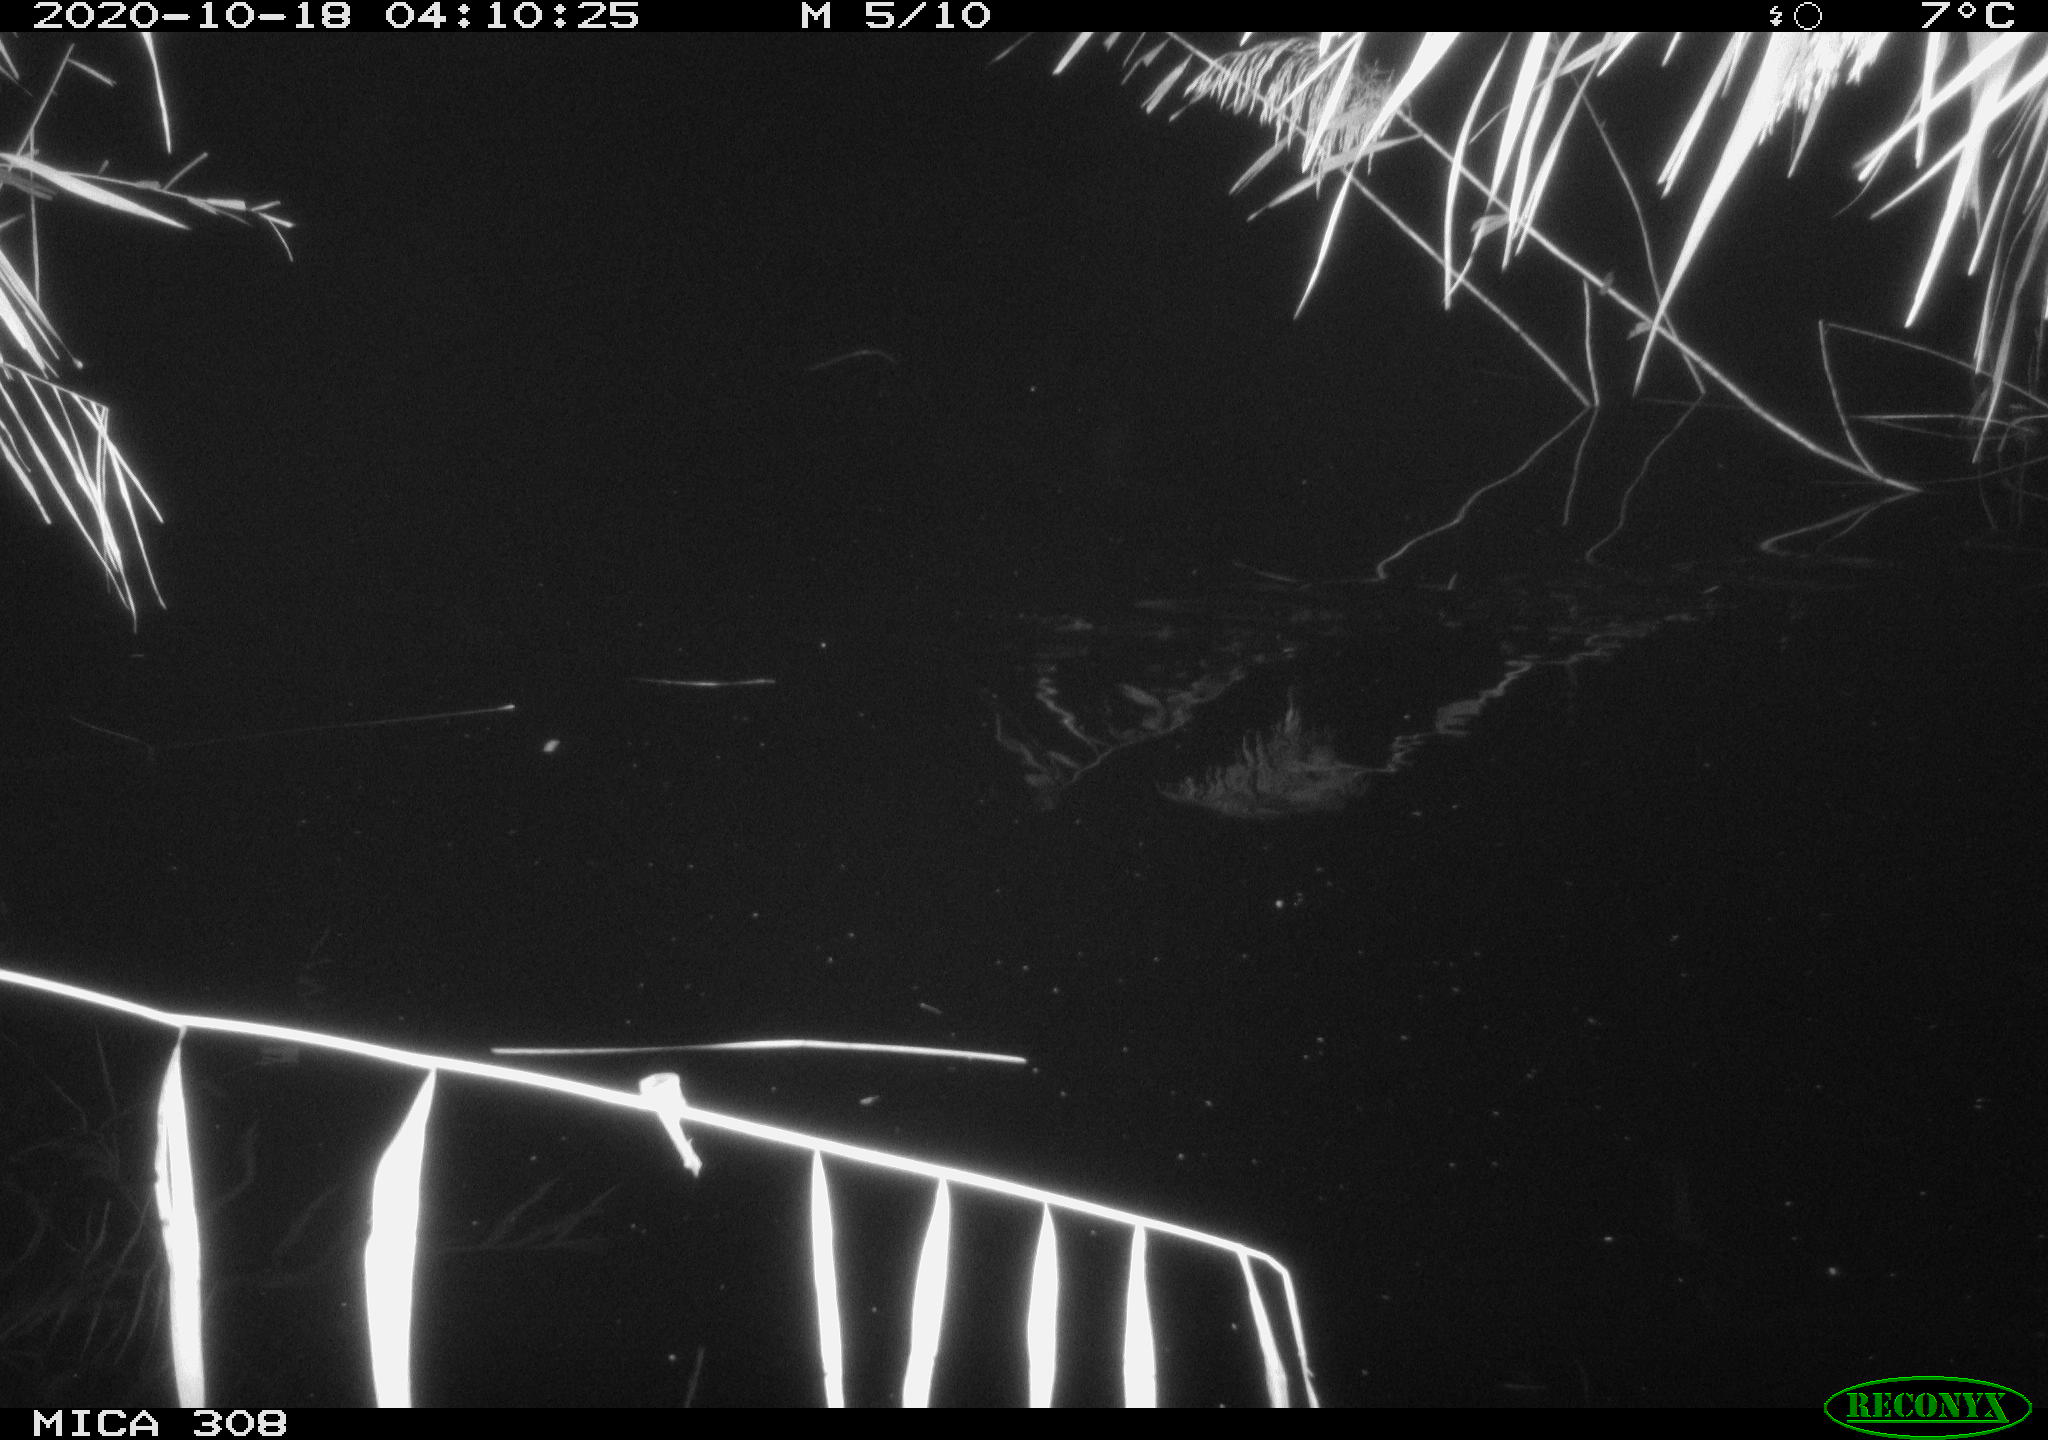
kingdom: Animalia
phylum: Chordata
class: Mammalia
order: Rodentia
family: Muridae
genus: Rattus
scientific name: Rattus norvegicus
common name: Brown rat
